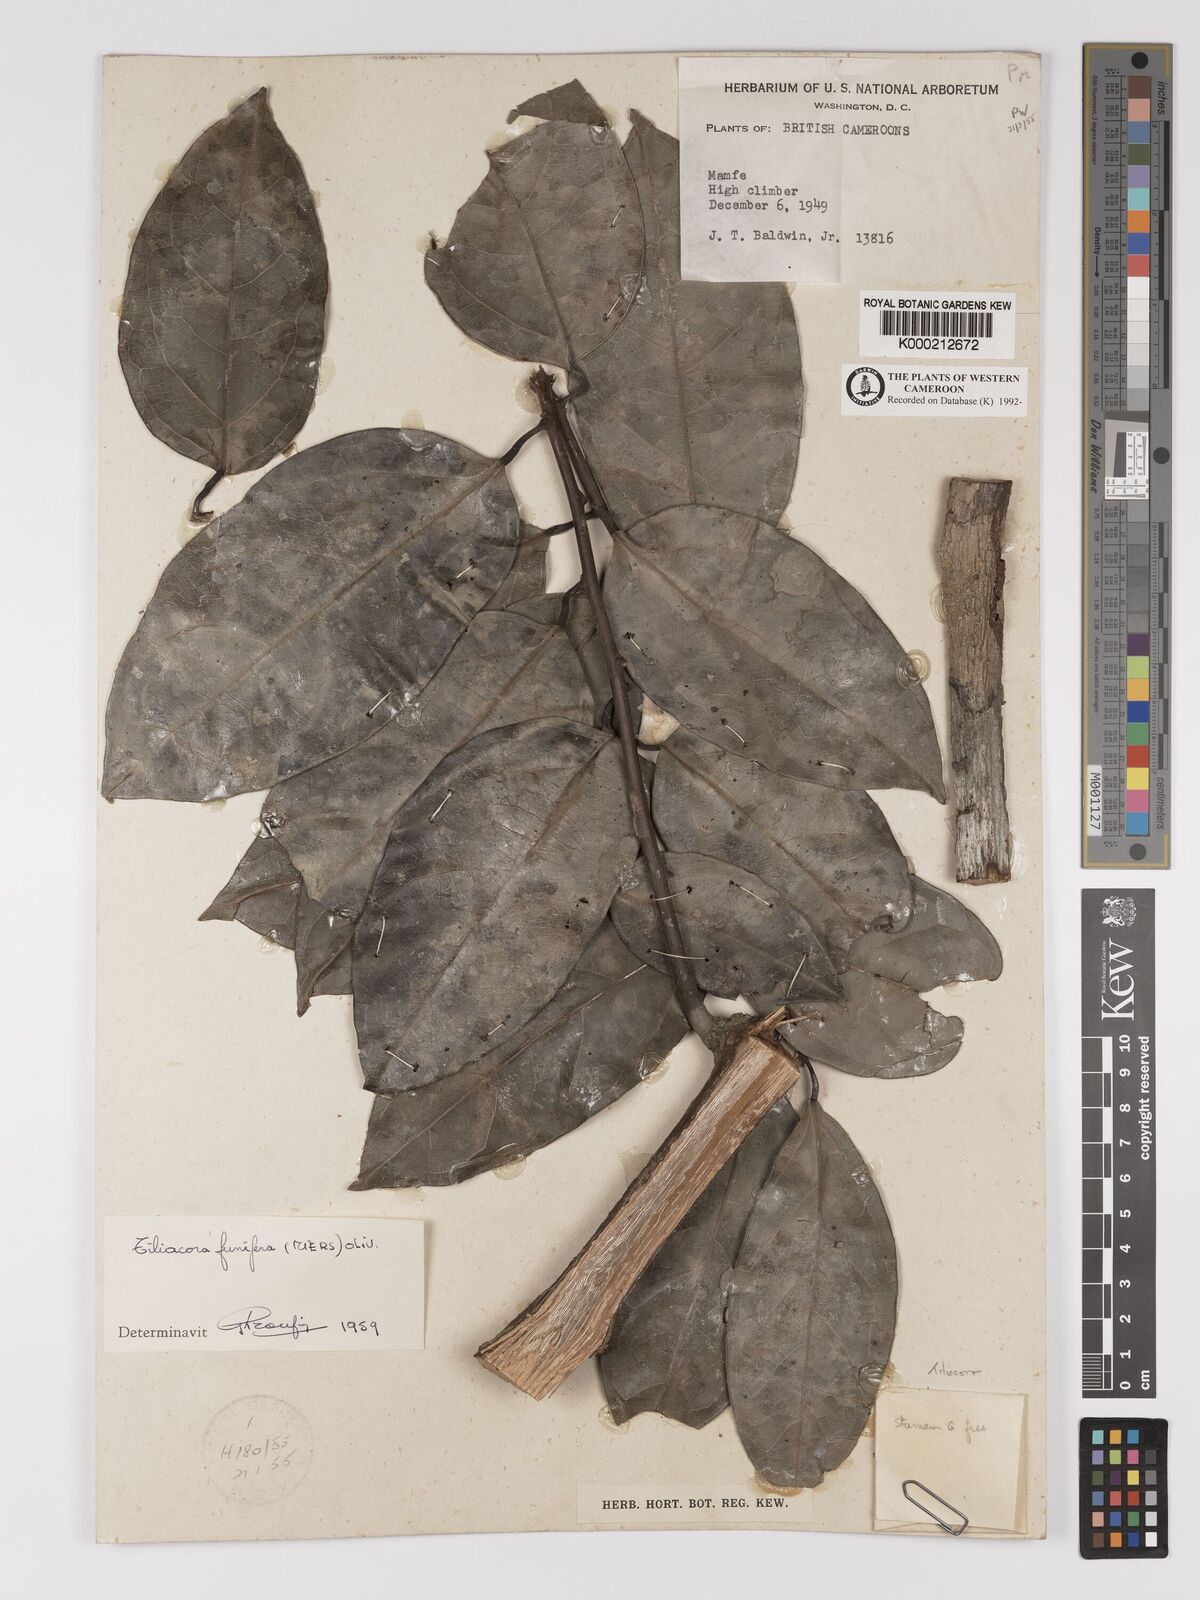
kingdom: Plantae
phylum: Tracheophyta
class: Magnoliopsida
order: Ranunculales
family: Menispermaceae
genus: Tiliacora
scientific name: Tiliacora funifera
